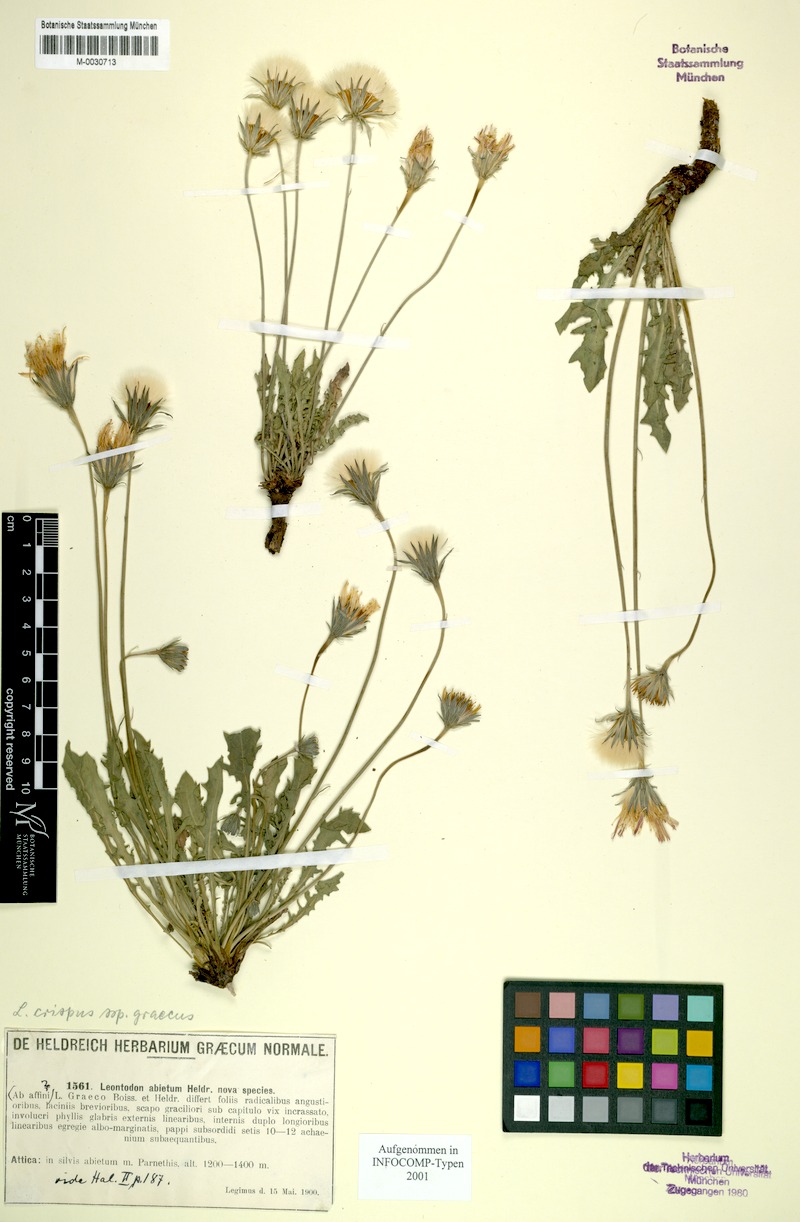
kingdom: Plantae
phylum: Tracheophyta
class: Magnoliopsida
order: Asterales
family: Asteraceae
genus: Leontodon
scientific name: Leontodon crispus
